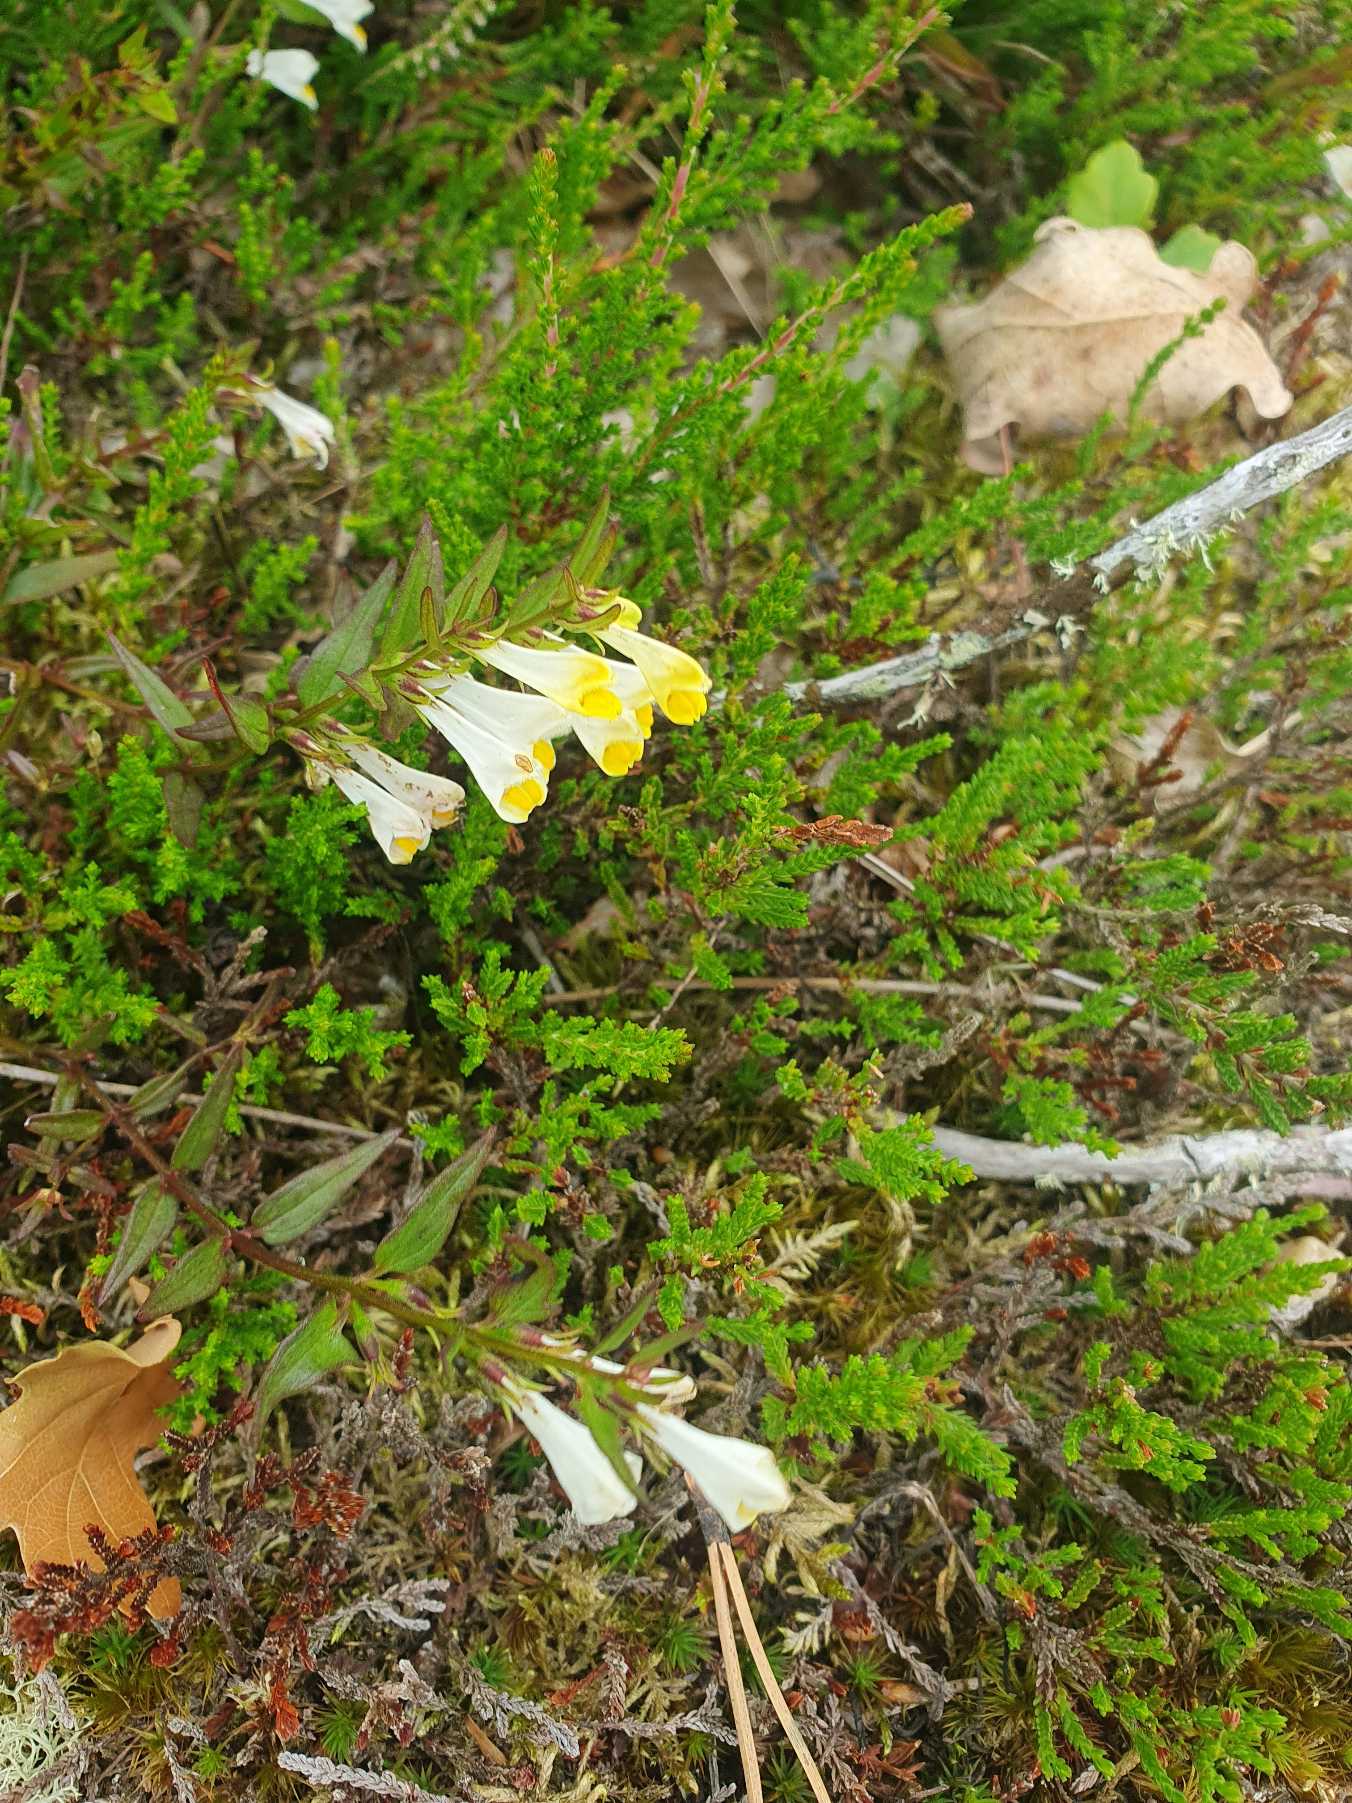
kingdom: Plantae
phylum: Tracheophyta
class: Magnoliopsida
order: Lamiales
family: Orobanchaceae
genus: Melampyrum
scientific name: Melampyrum pratense
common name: Almindelig kohvede
